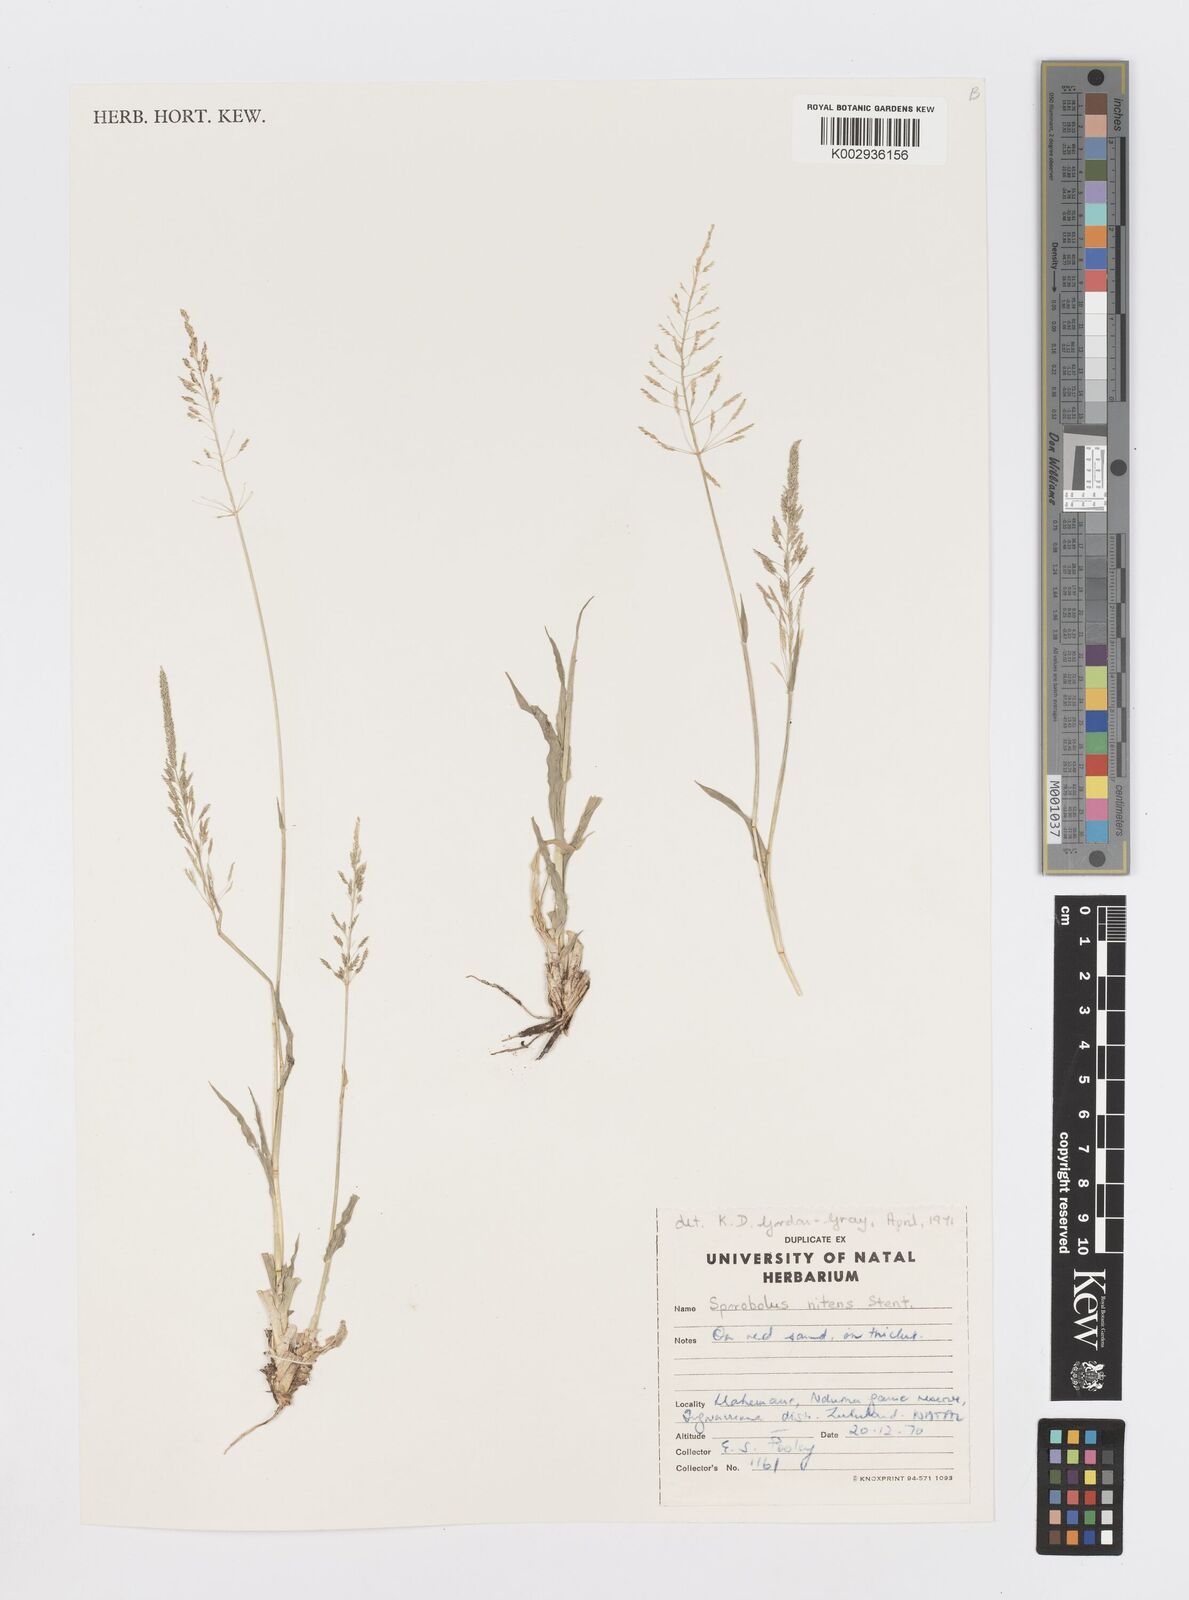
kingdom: Plantae
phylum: Tracheophyta
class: Liliopsida
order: Poales
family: Poaceae
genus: Sporobolus
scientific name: Sporobolus nitens
